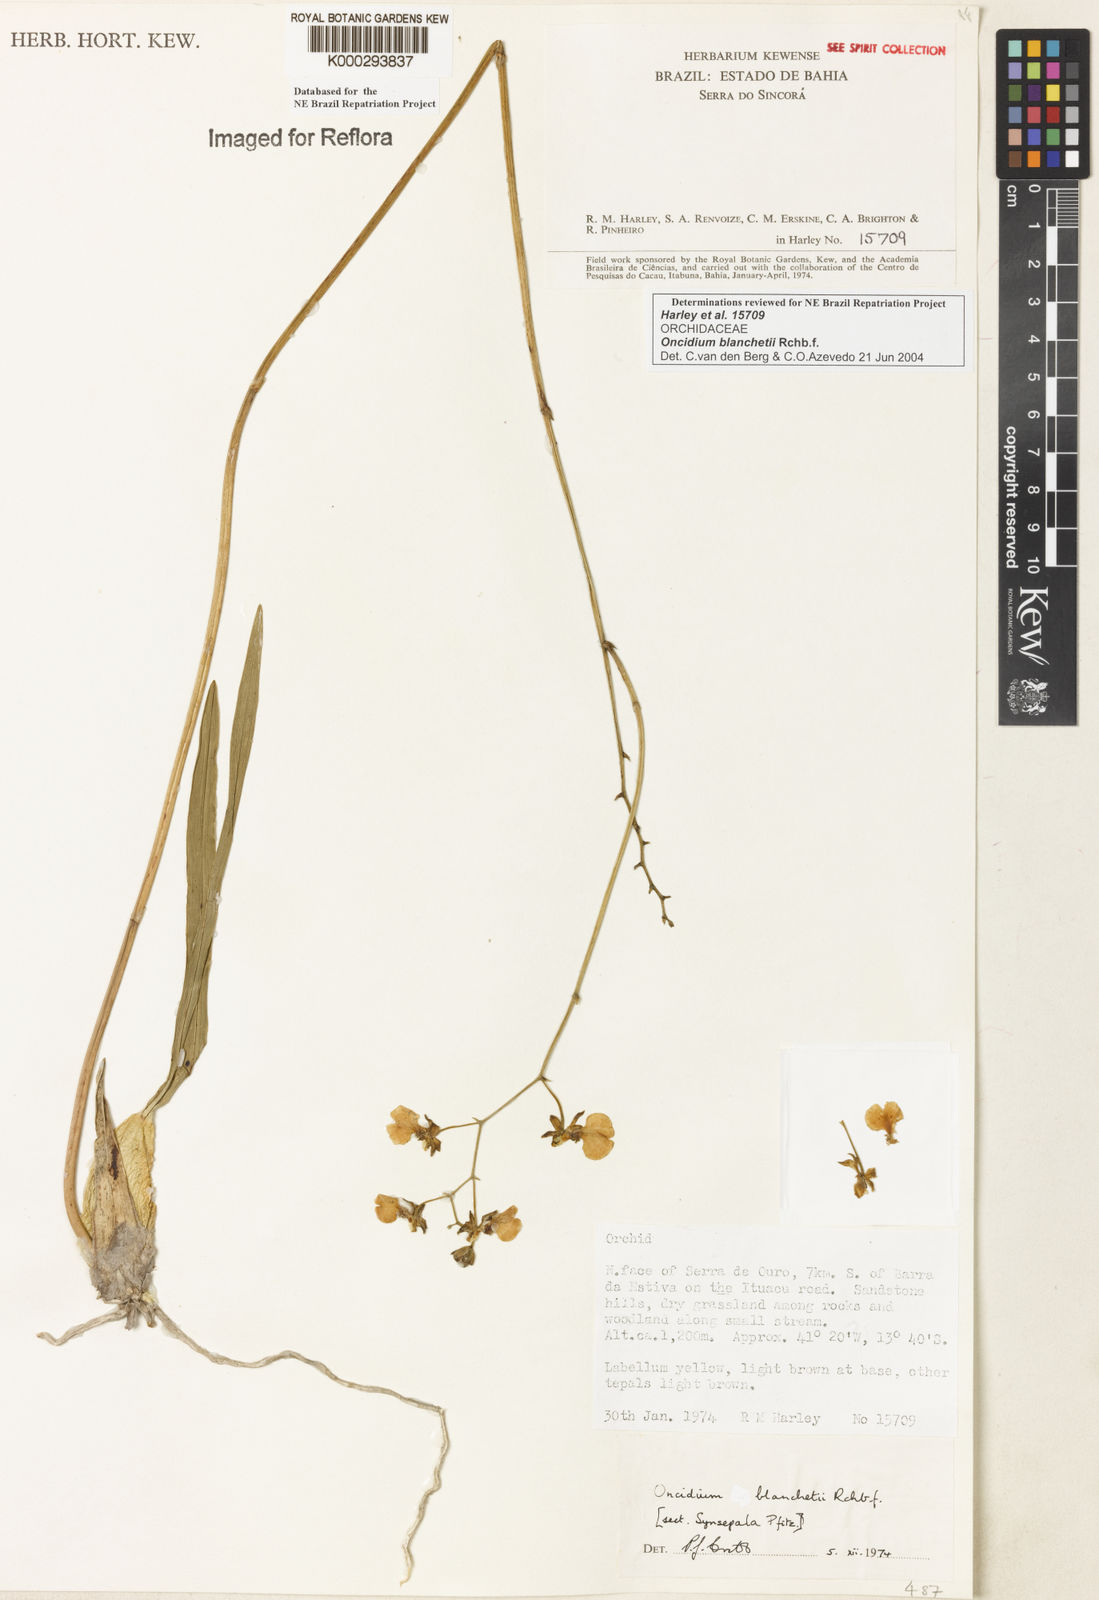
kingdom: Plantae
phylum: Tracheophyta
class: Liliopsida
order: Asparagales
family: Orchidaceae
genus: Gomesa
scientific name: Gomesa ramosa
